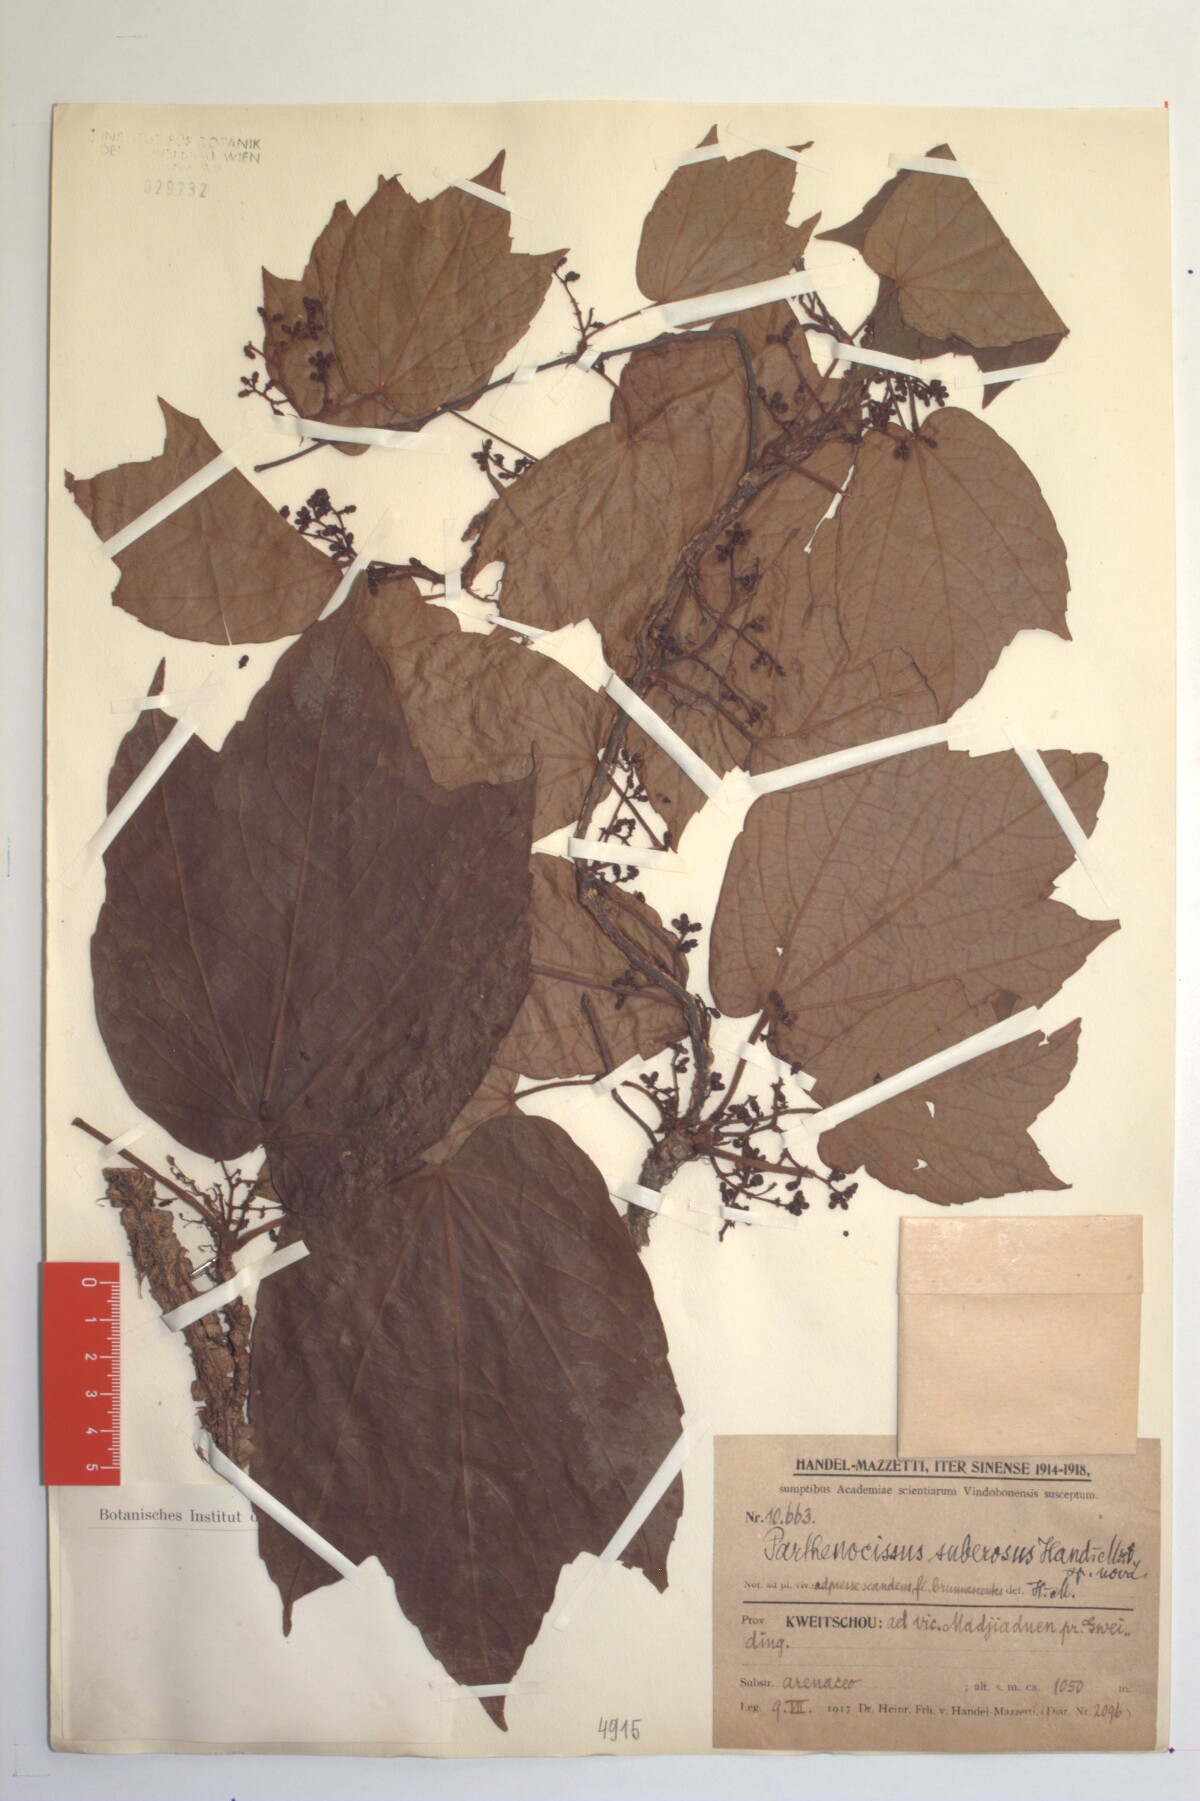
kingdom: Plantae
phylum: Tracheophyta
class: Magnoliopsida
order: Vitales
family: Vitaceae
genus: Parthenocissus
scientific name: Parthenocissus suberosus
